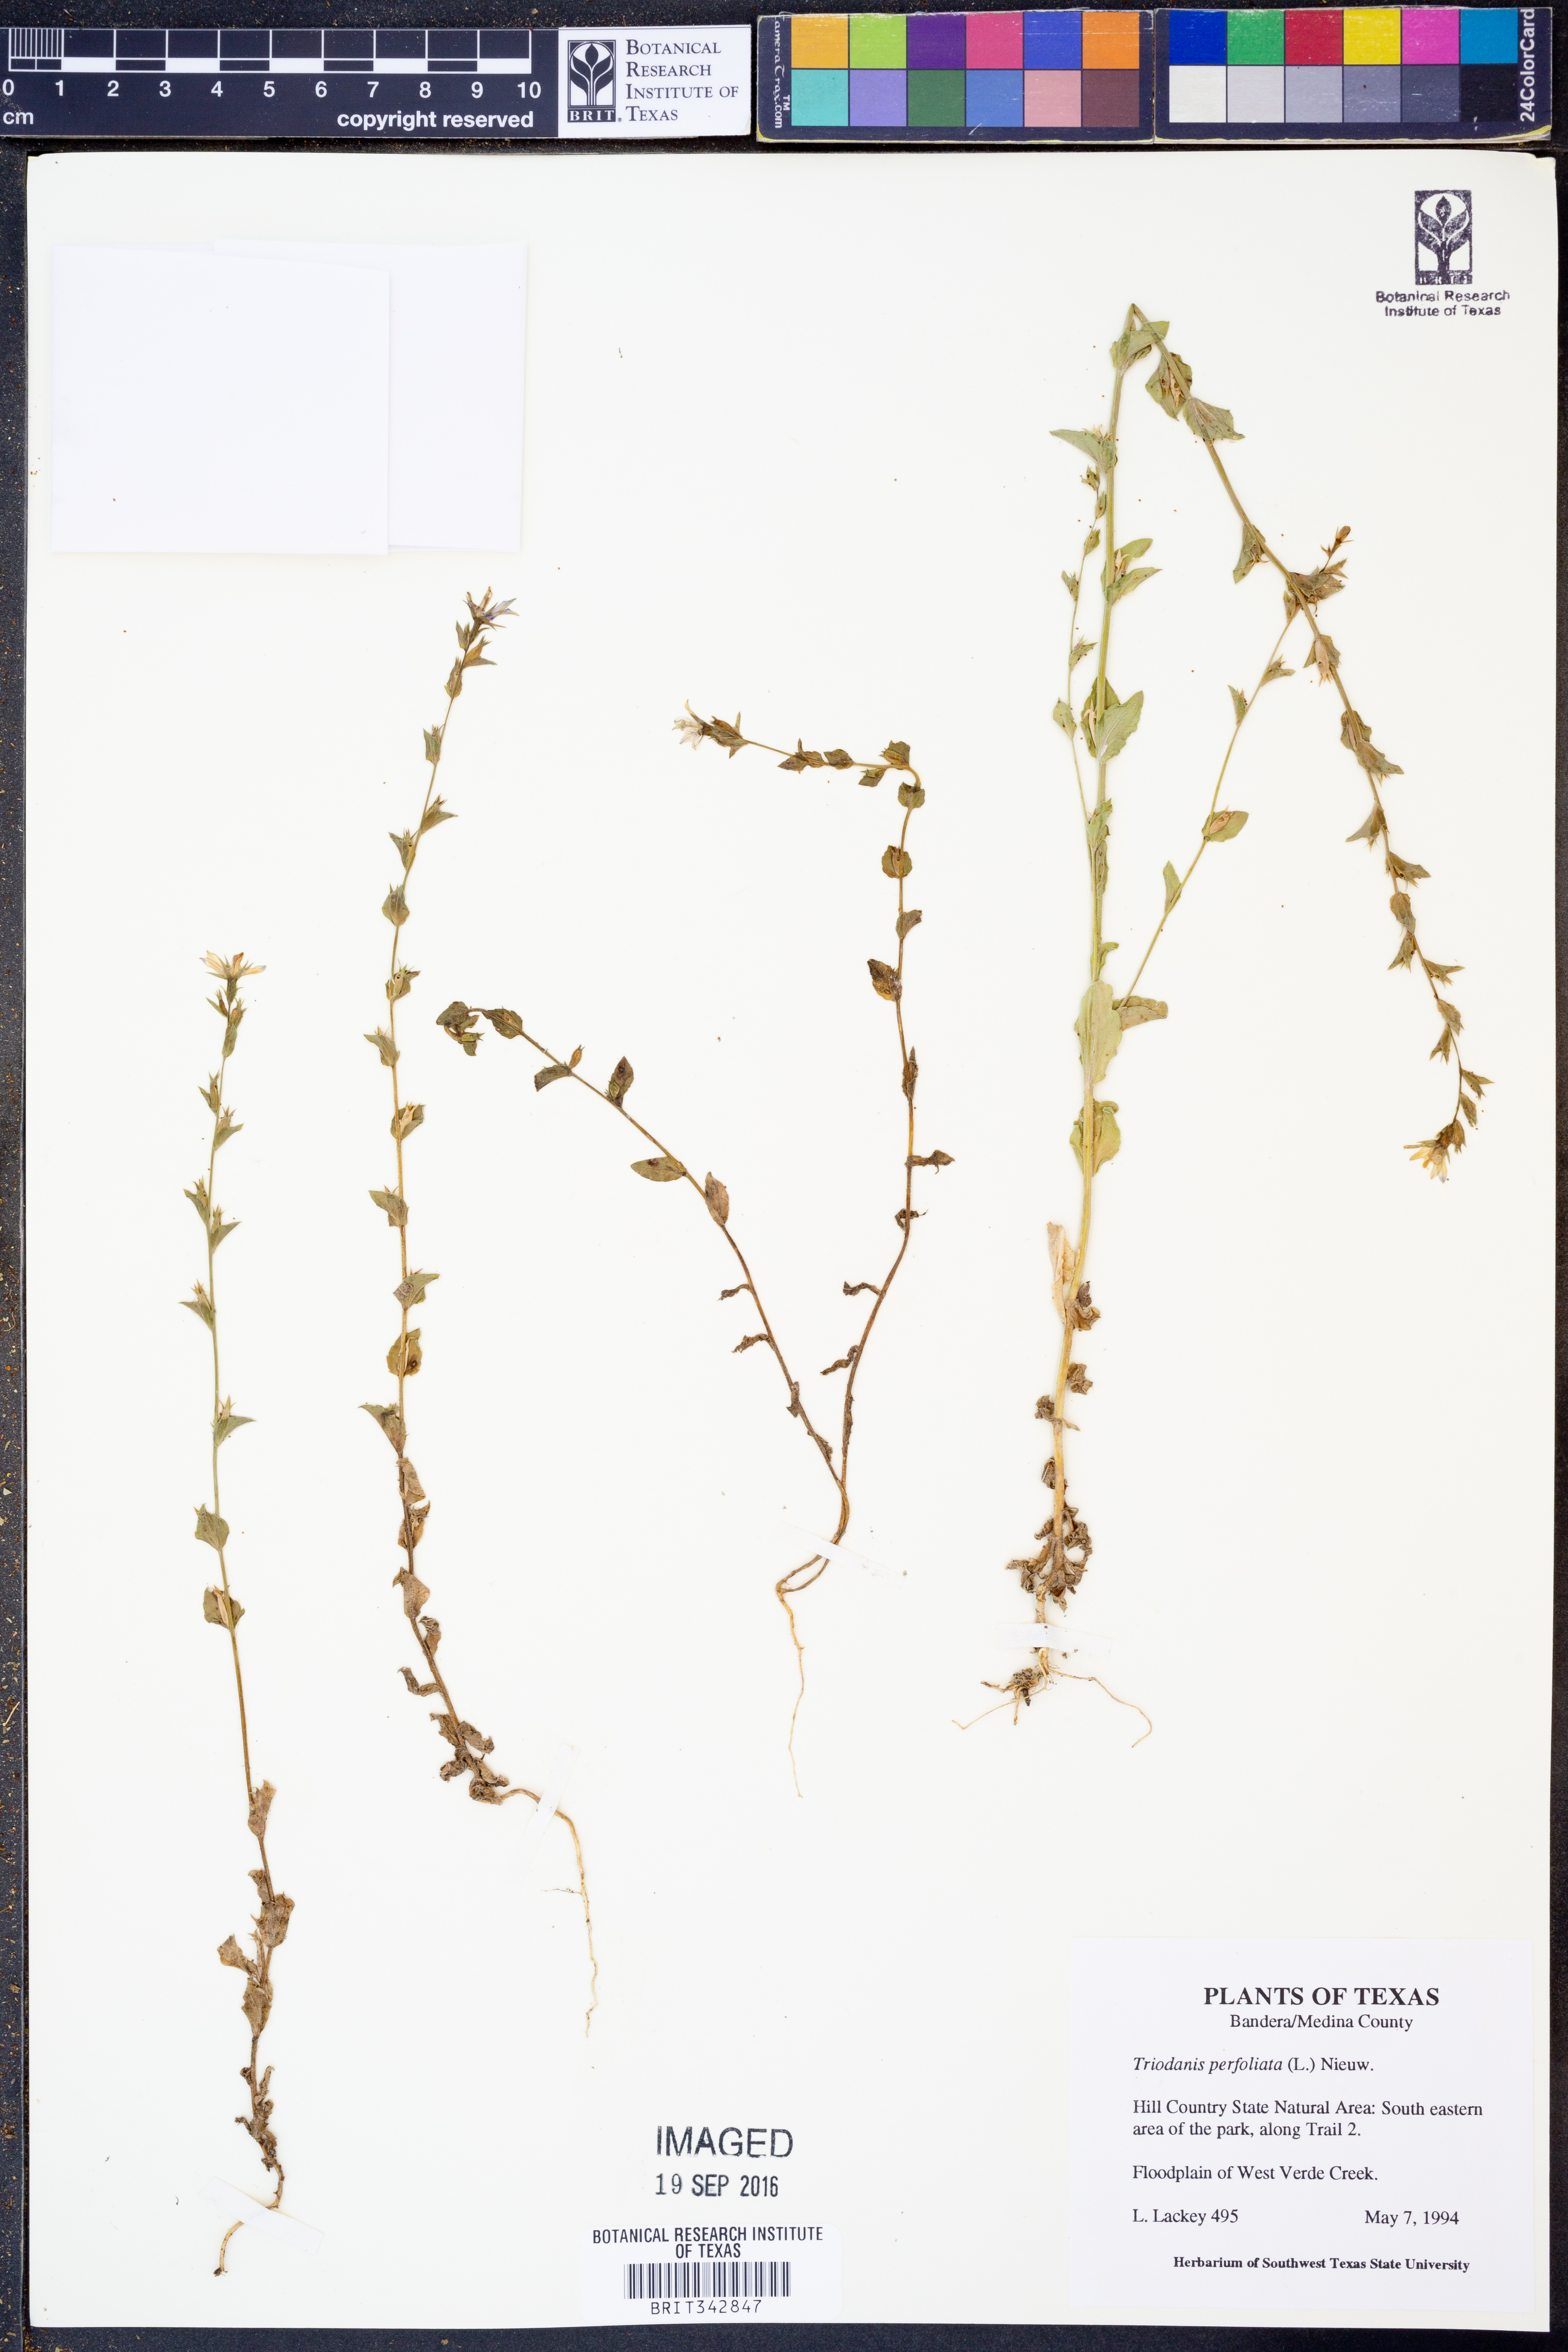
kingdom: Plantae
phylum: Tracheophyta
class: Magnoliopsida
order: Asterales
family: Campanulaceae
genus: Triodanis
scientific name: Triodanis perfoliata
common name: Clasping venus' looking-glass
